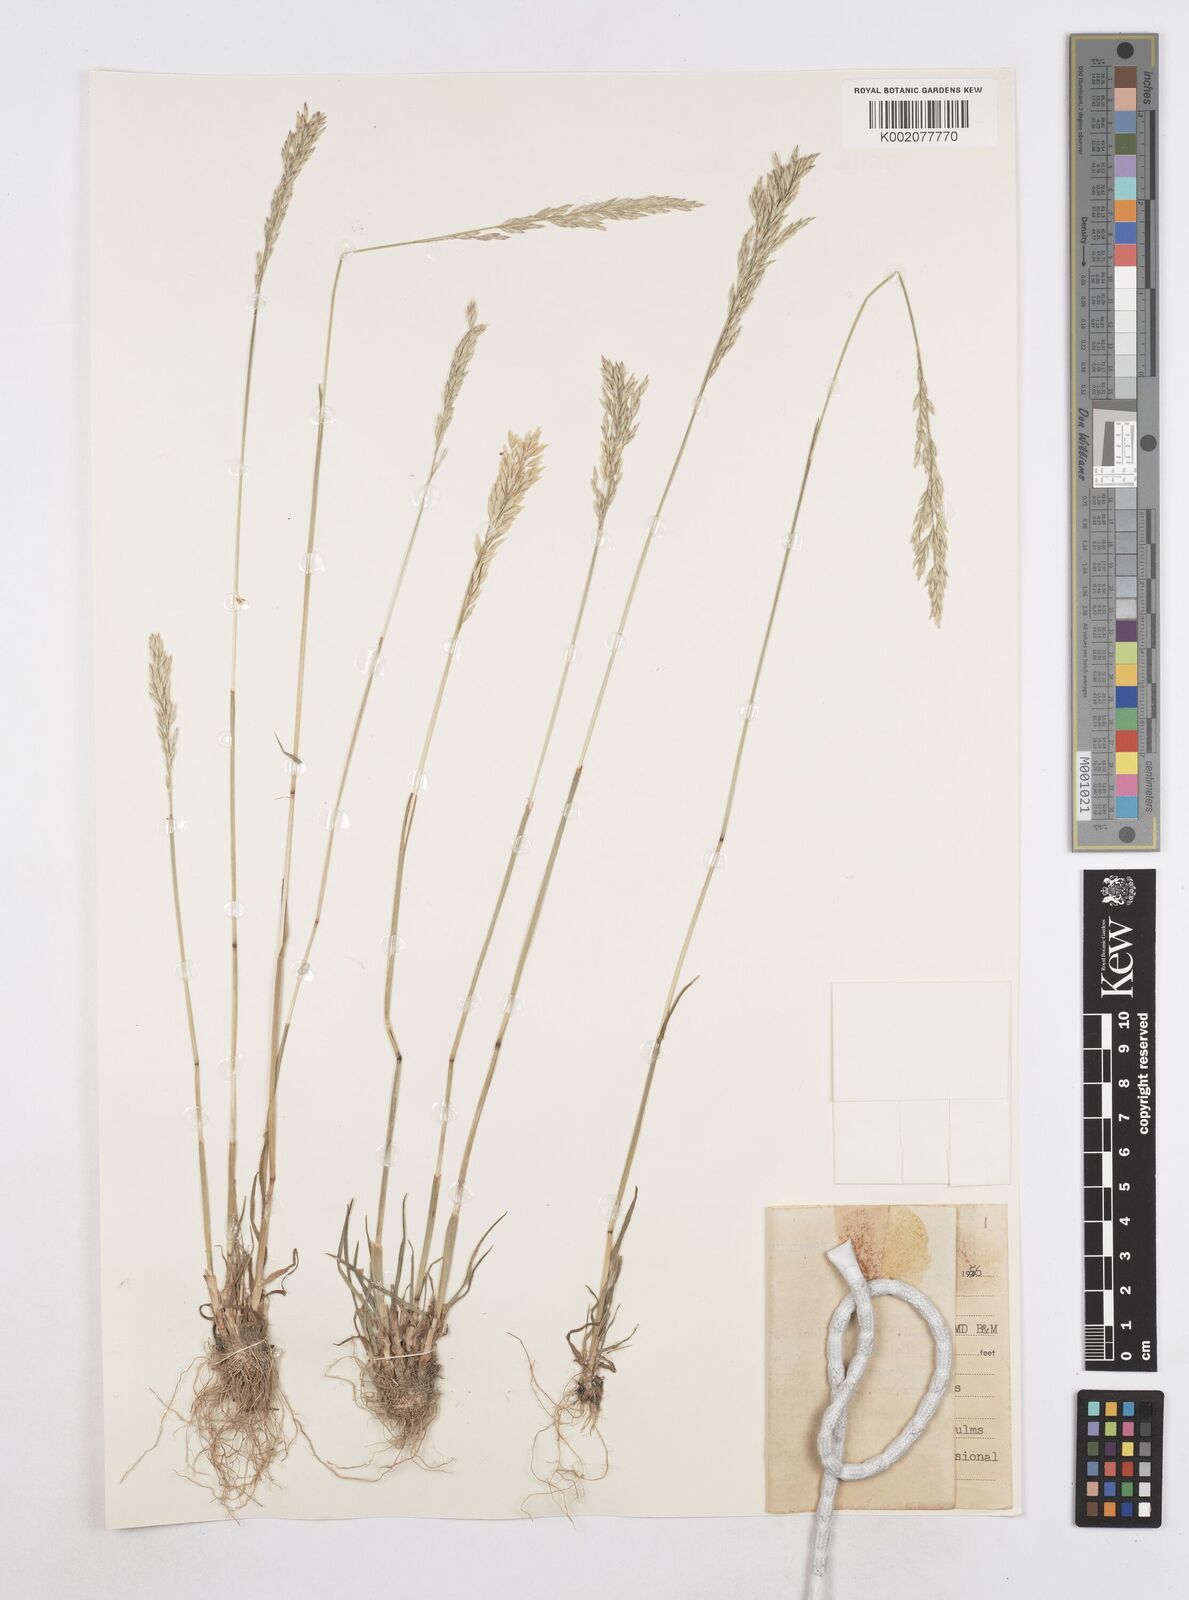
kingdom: Plantae
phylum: Tracheophyta
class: Liliopsida
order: Poales
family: Poaceae
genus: Poa
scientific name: Poa secunda
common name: Sandberg bluegrass
